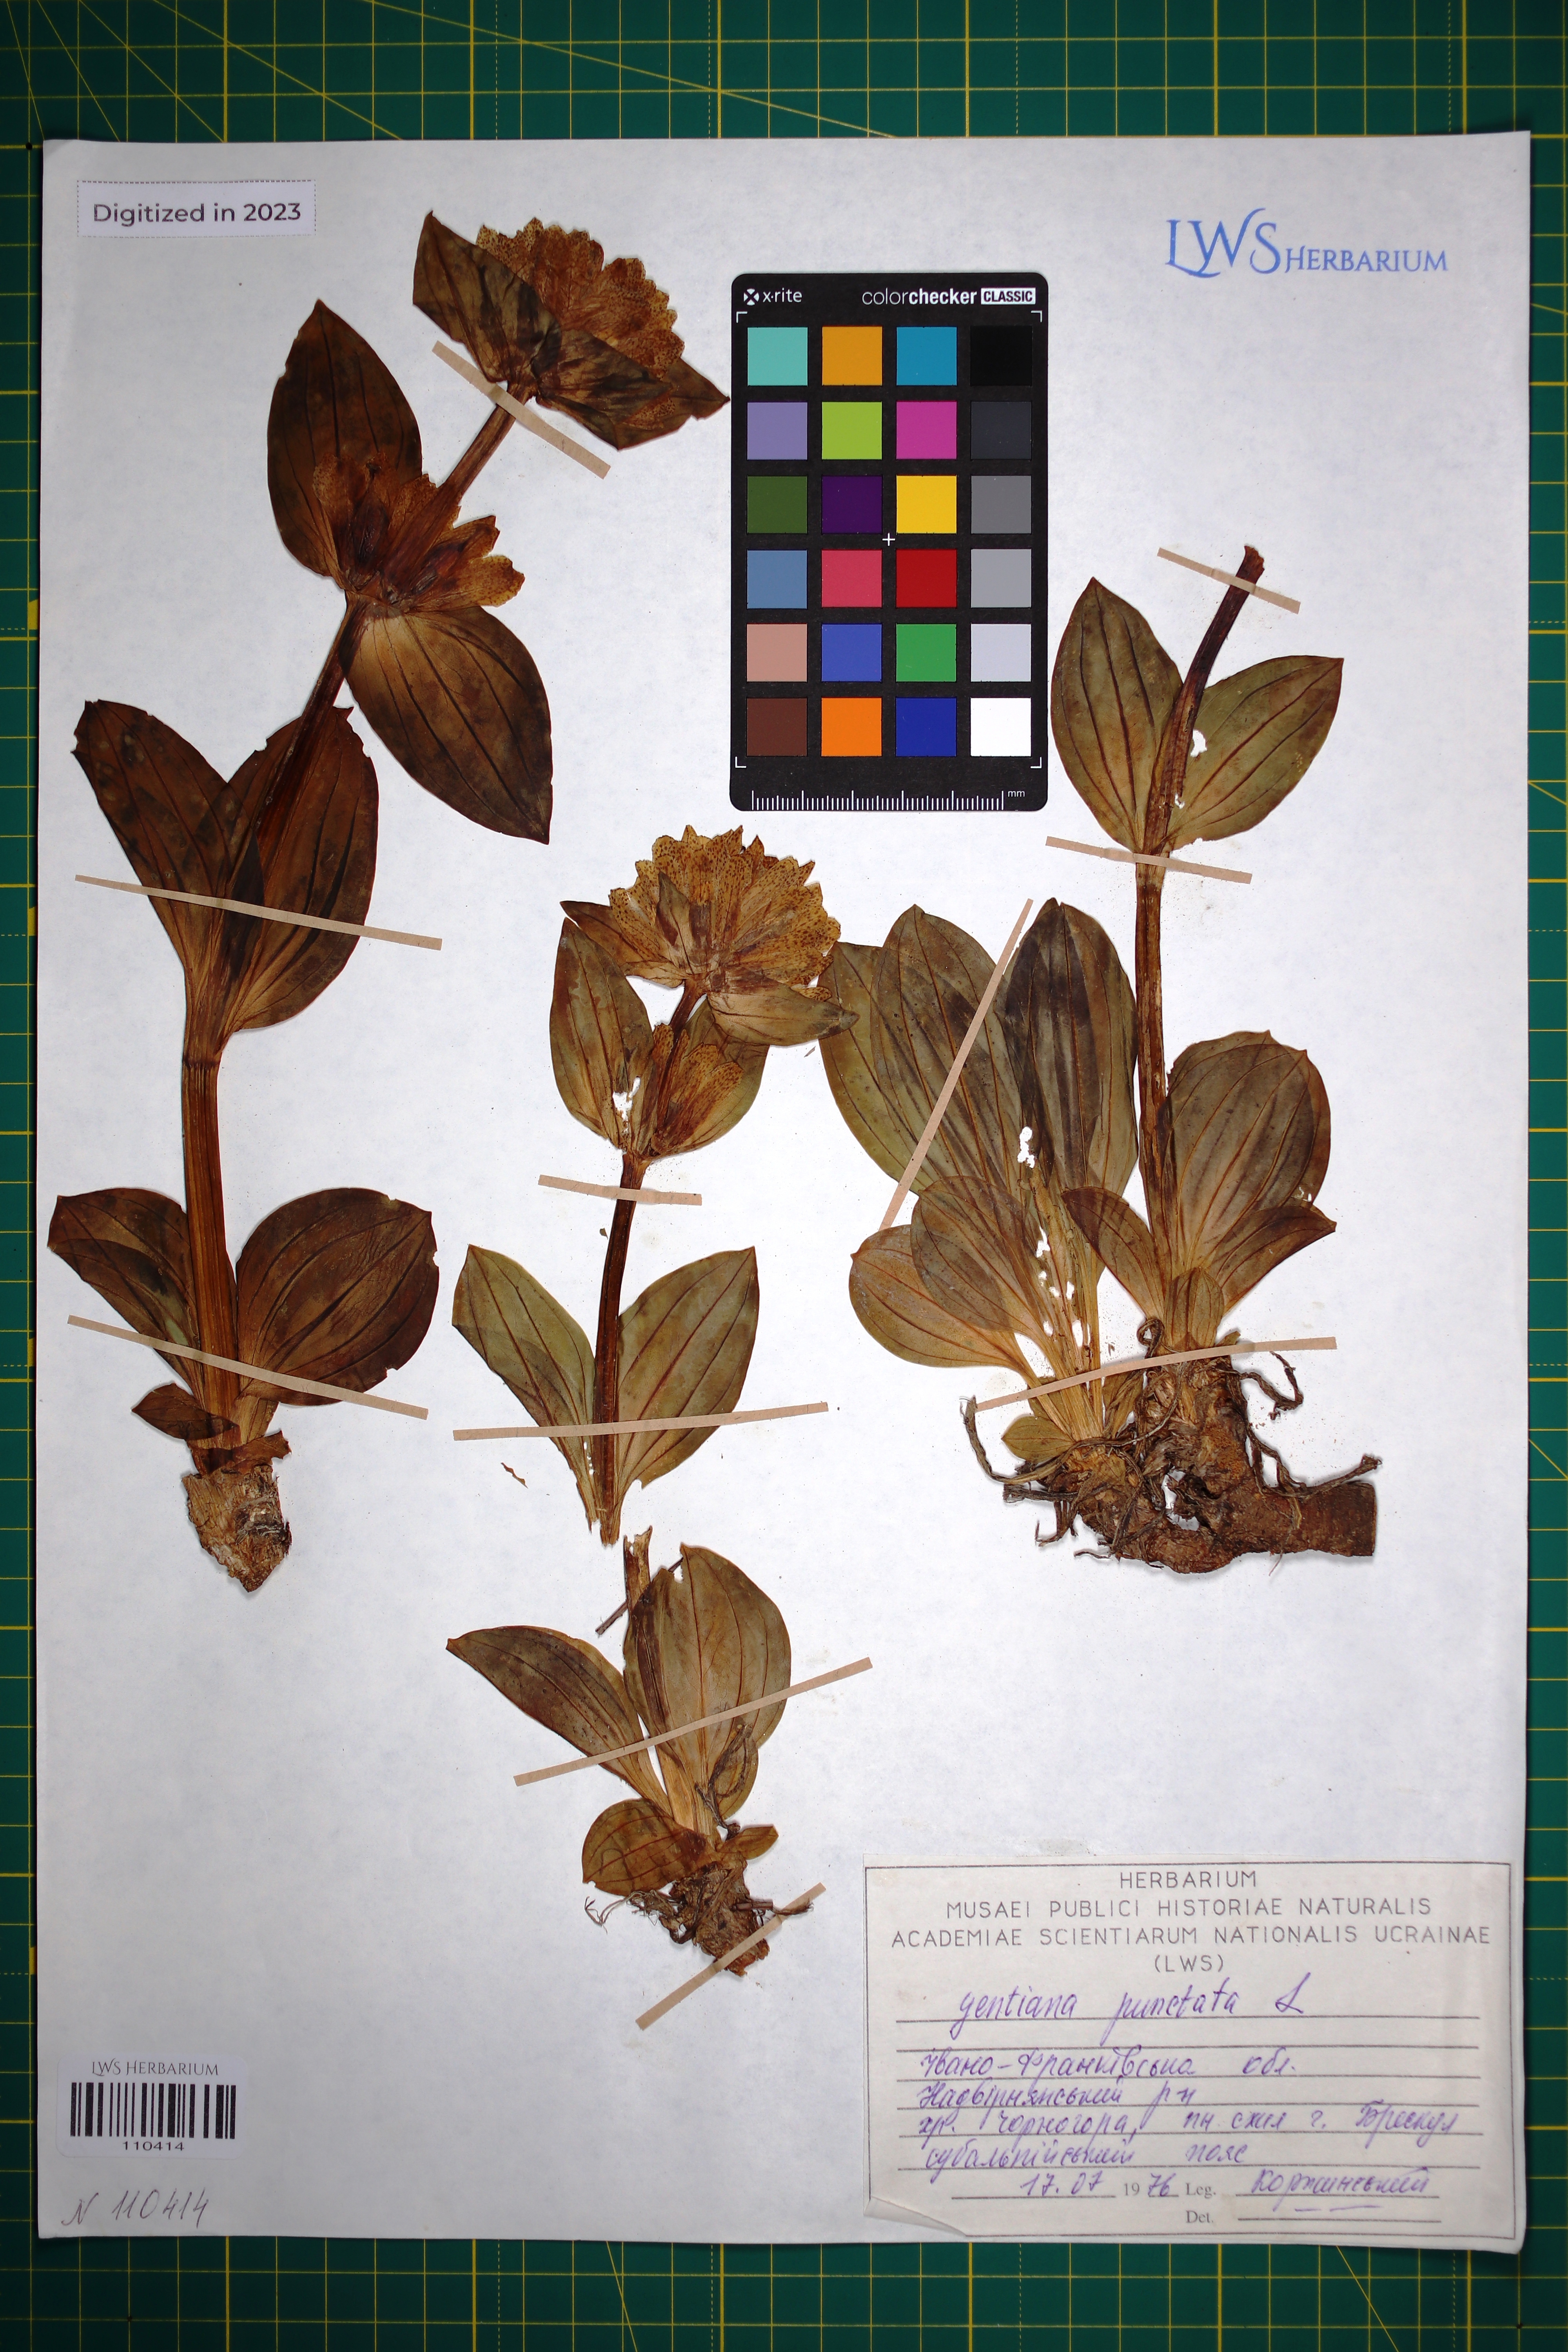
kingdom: Plantae
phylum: Tracheophyta
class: Magnoliopsida
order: Gentianales
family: Gentianaceae
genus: Gentiana
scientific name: Gentiana punctata
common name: Spotted gentian
